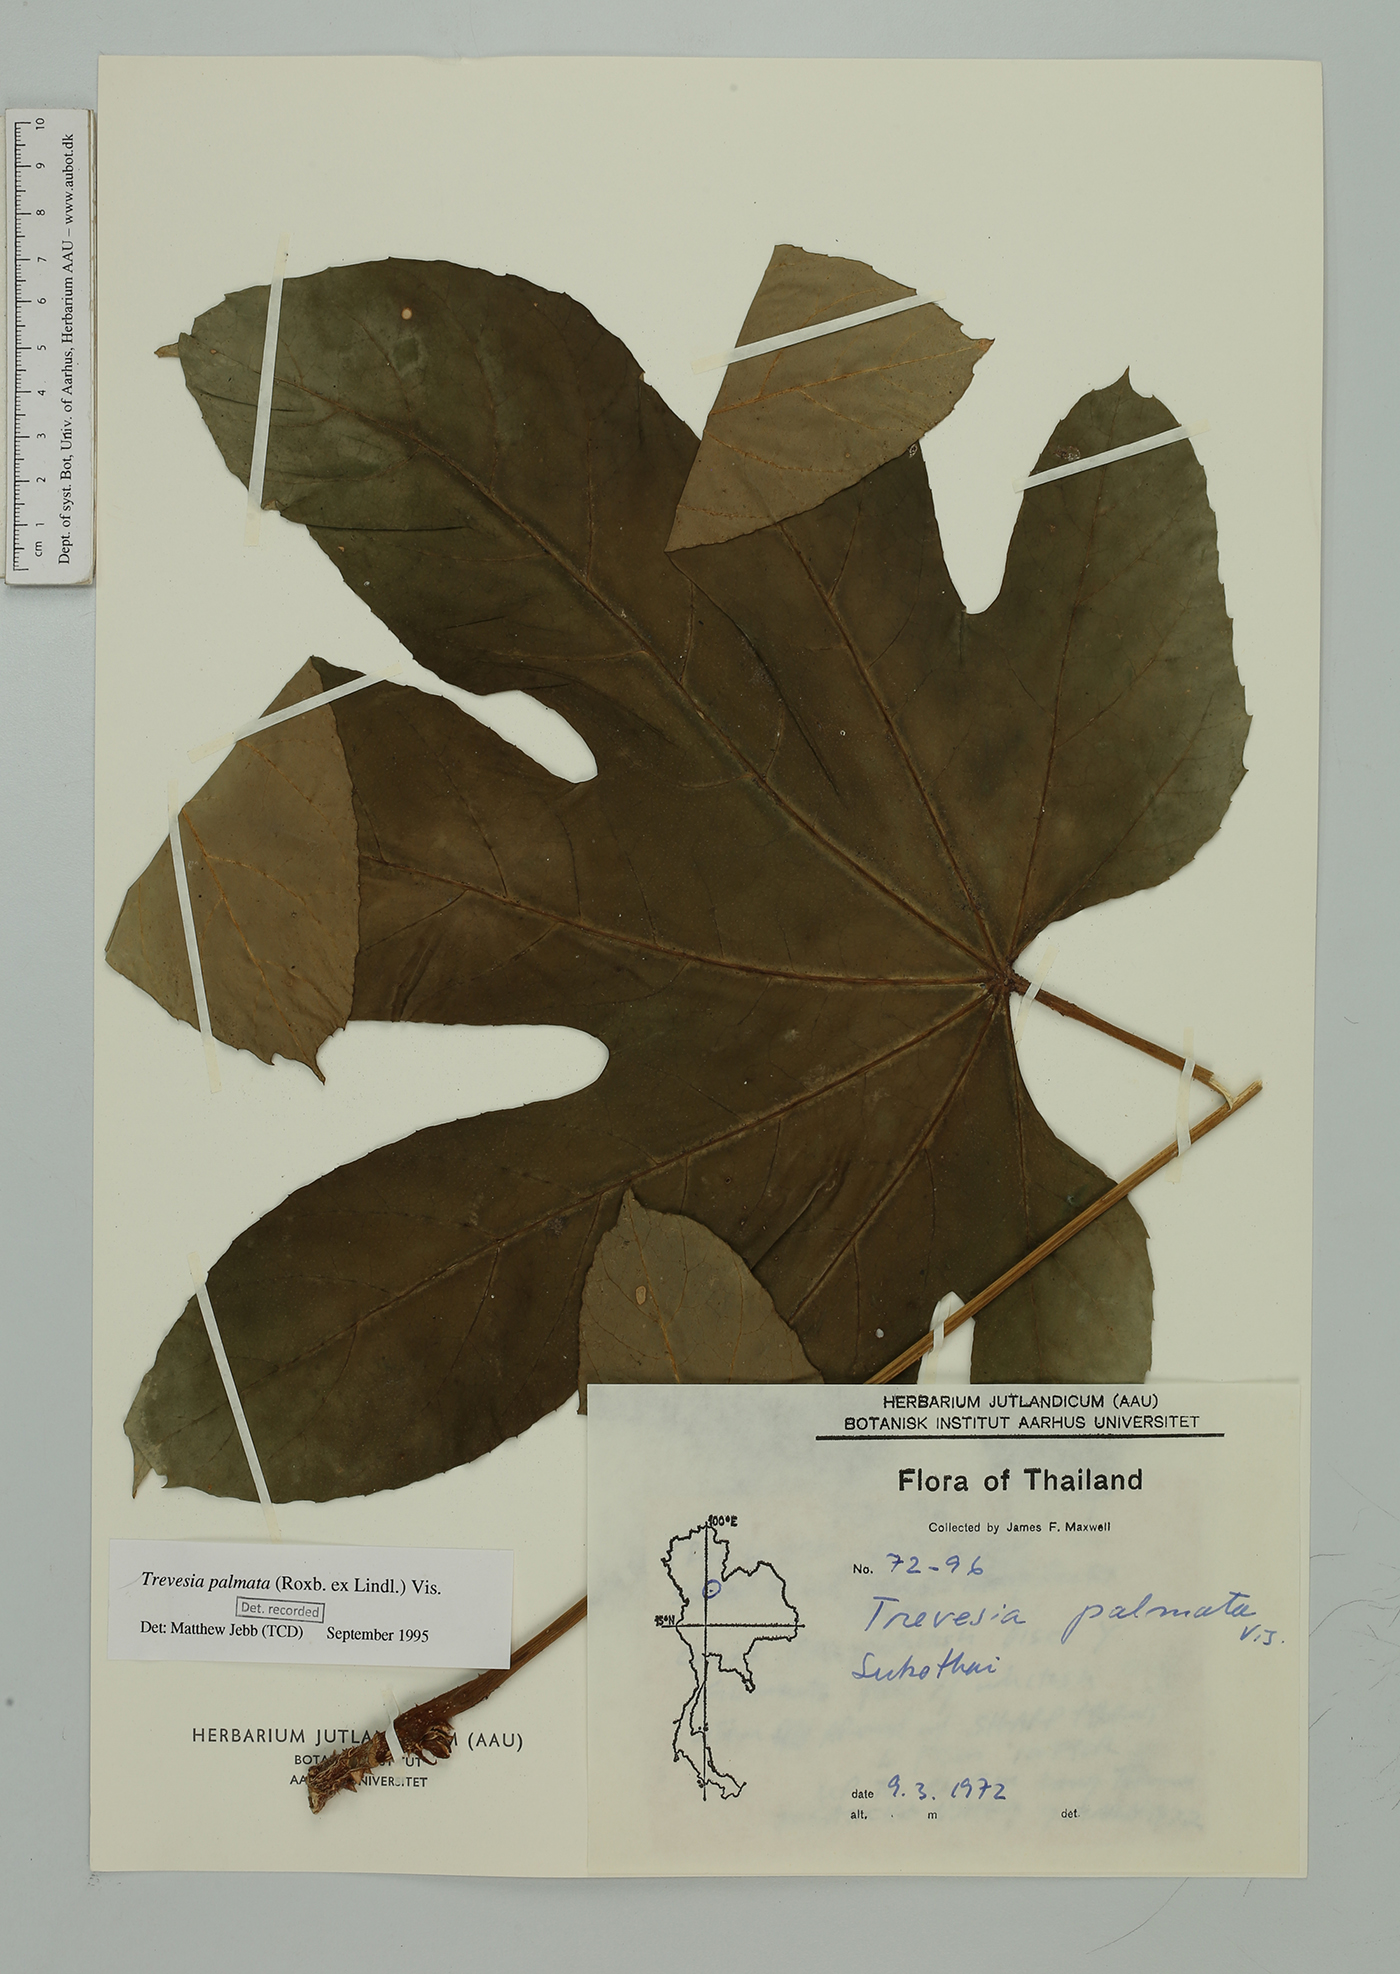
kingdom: Plantae
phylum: Tracheophyta
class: Magnoliopsida
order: Apiales
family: Araliaceae
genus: Trevesia
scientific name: Trevesia palmata
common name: Snowflakeplant
